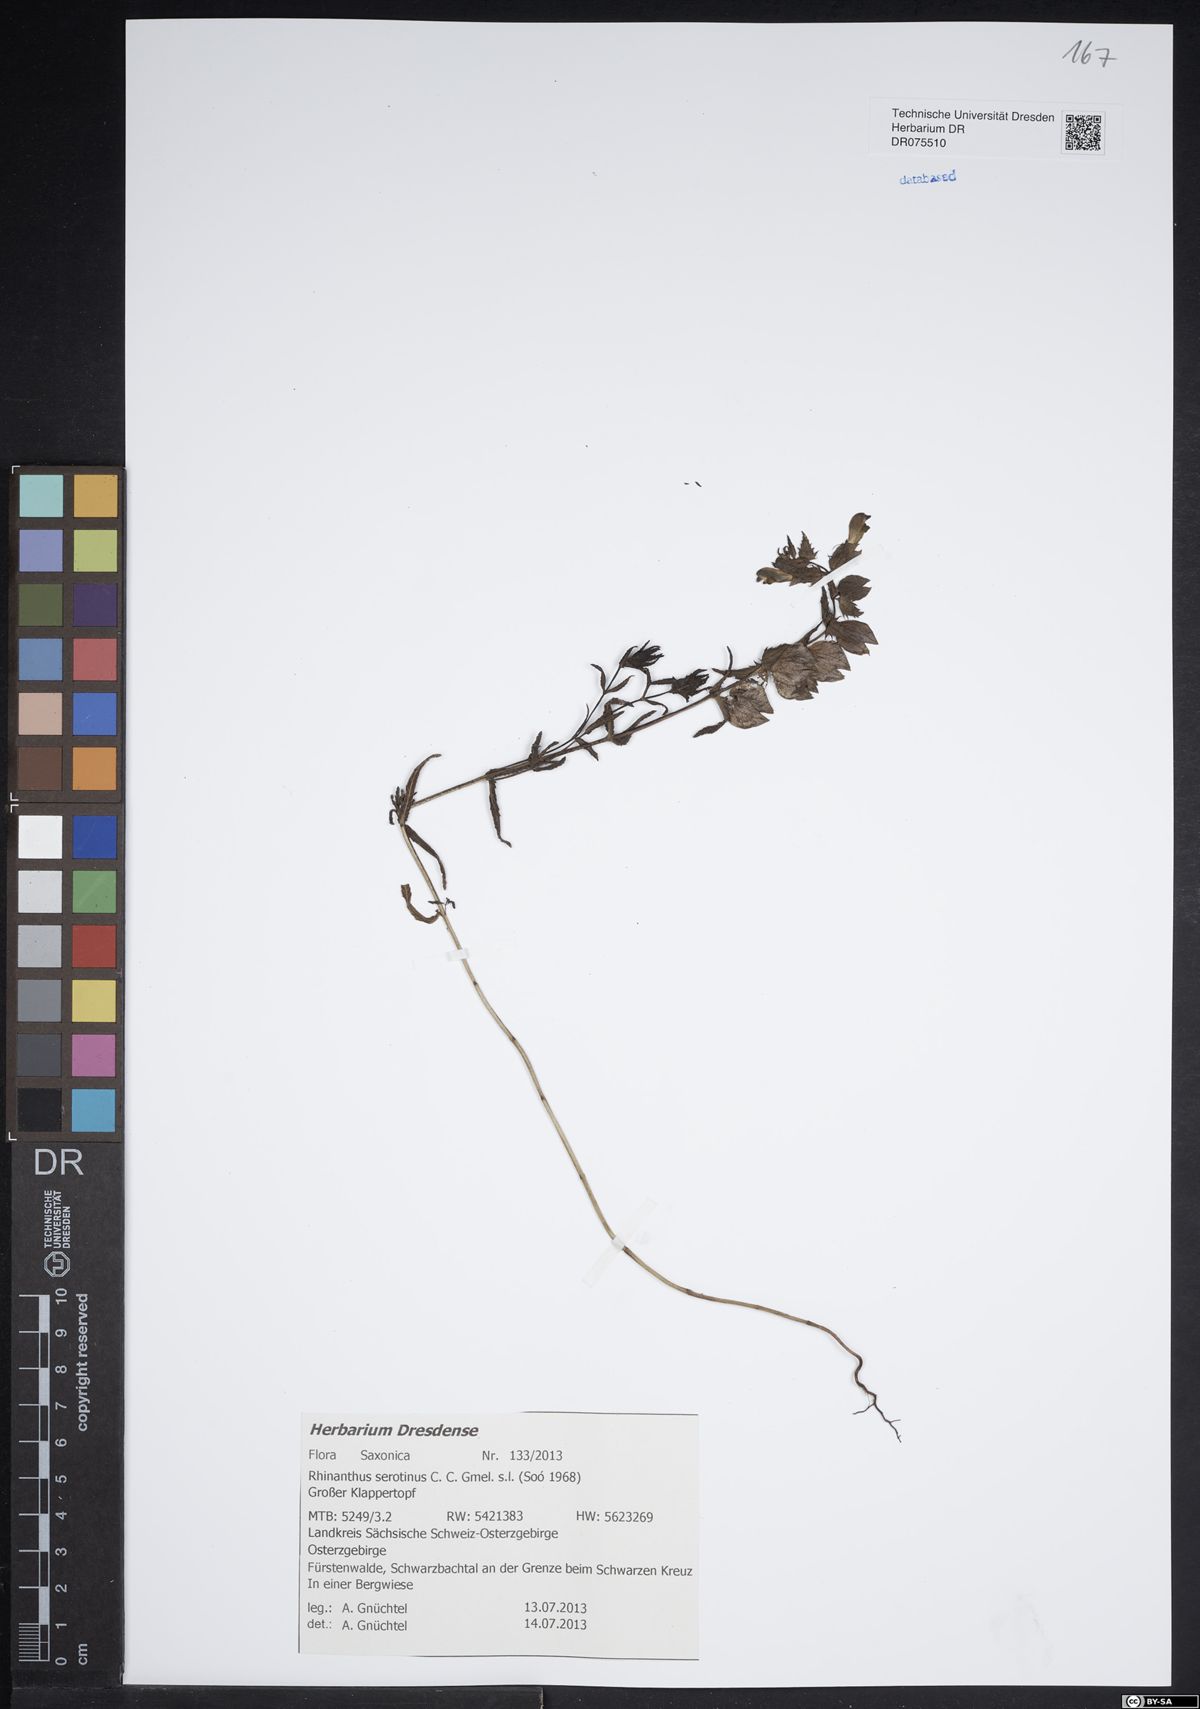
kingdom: Plantae
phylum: Tracheophyta
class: Magnoliopsida
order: Lamiales
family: Orobanchaceae
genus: Rhinanthus
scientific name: Rhinanthus serotinus
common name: Late-flowering yellow rattle
